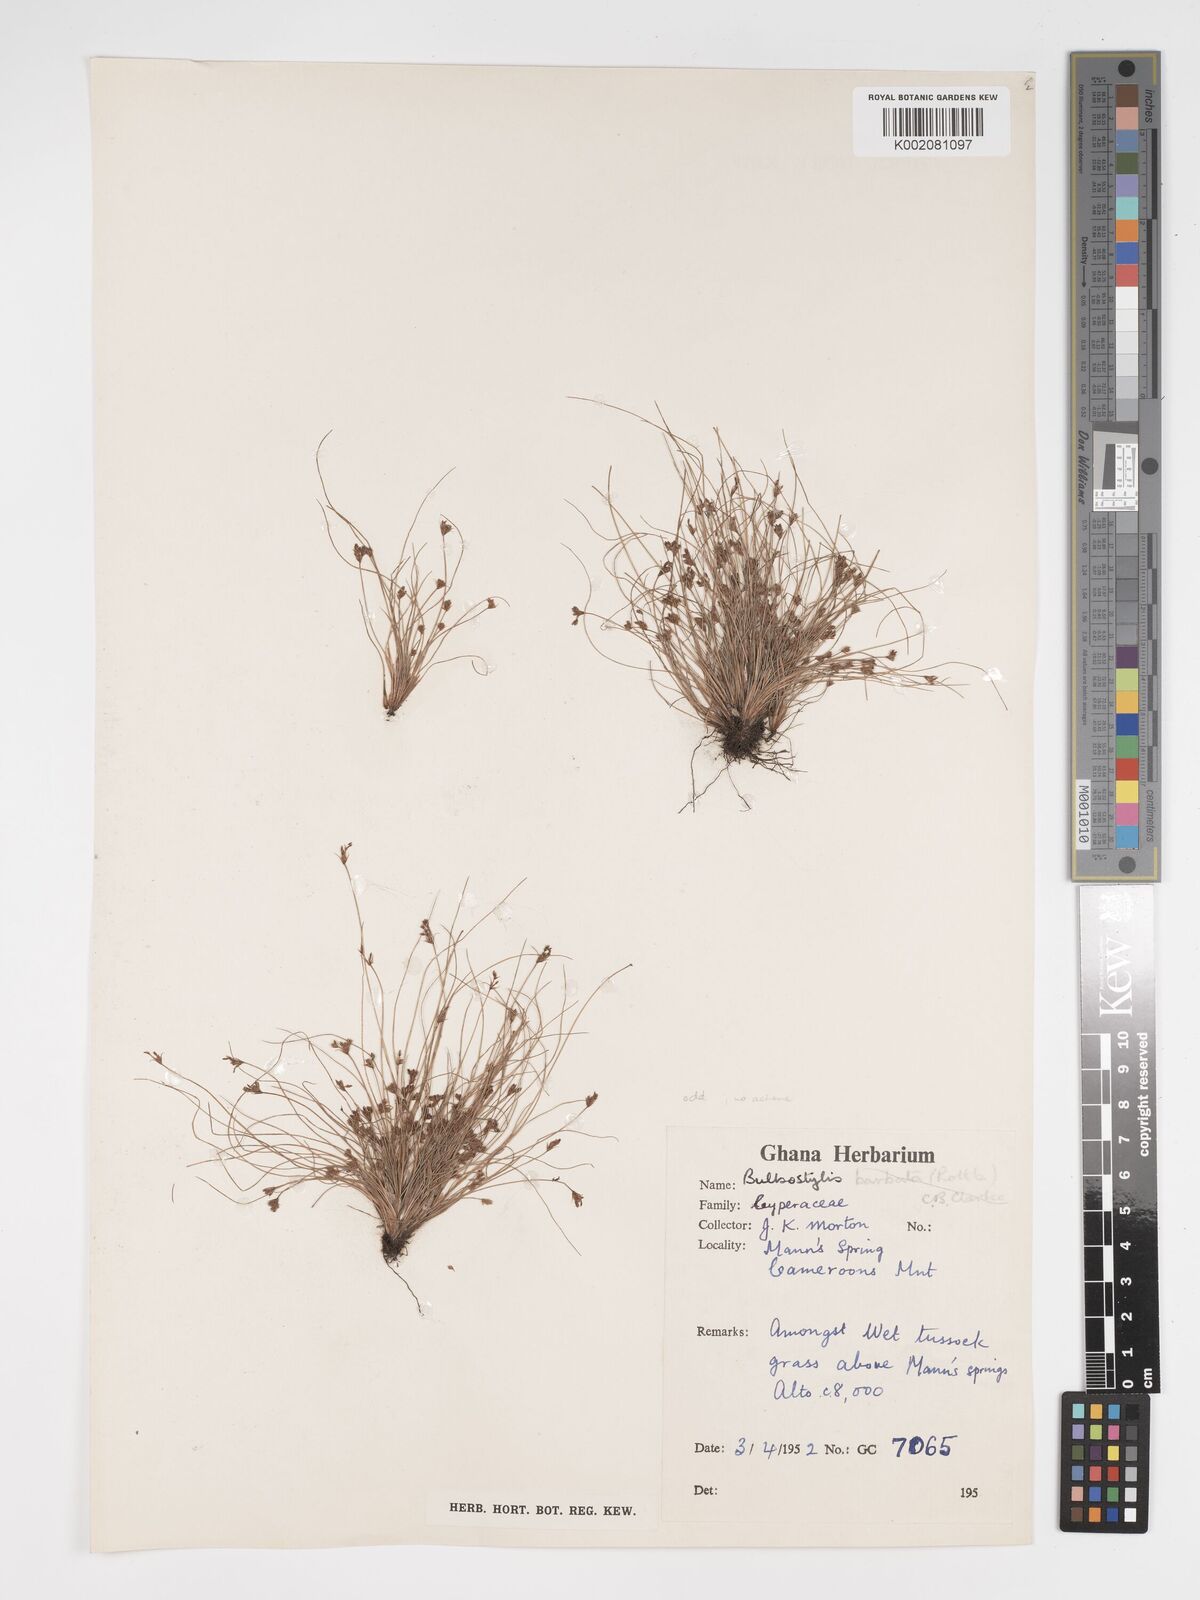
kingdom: Plantae
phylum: Tracheophyta
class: Liliopsida
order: Poales
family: Cyperaceae
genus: Bulbostylis
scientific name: Bulbostylis densa
